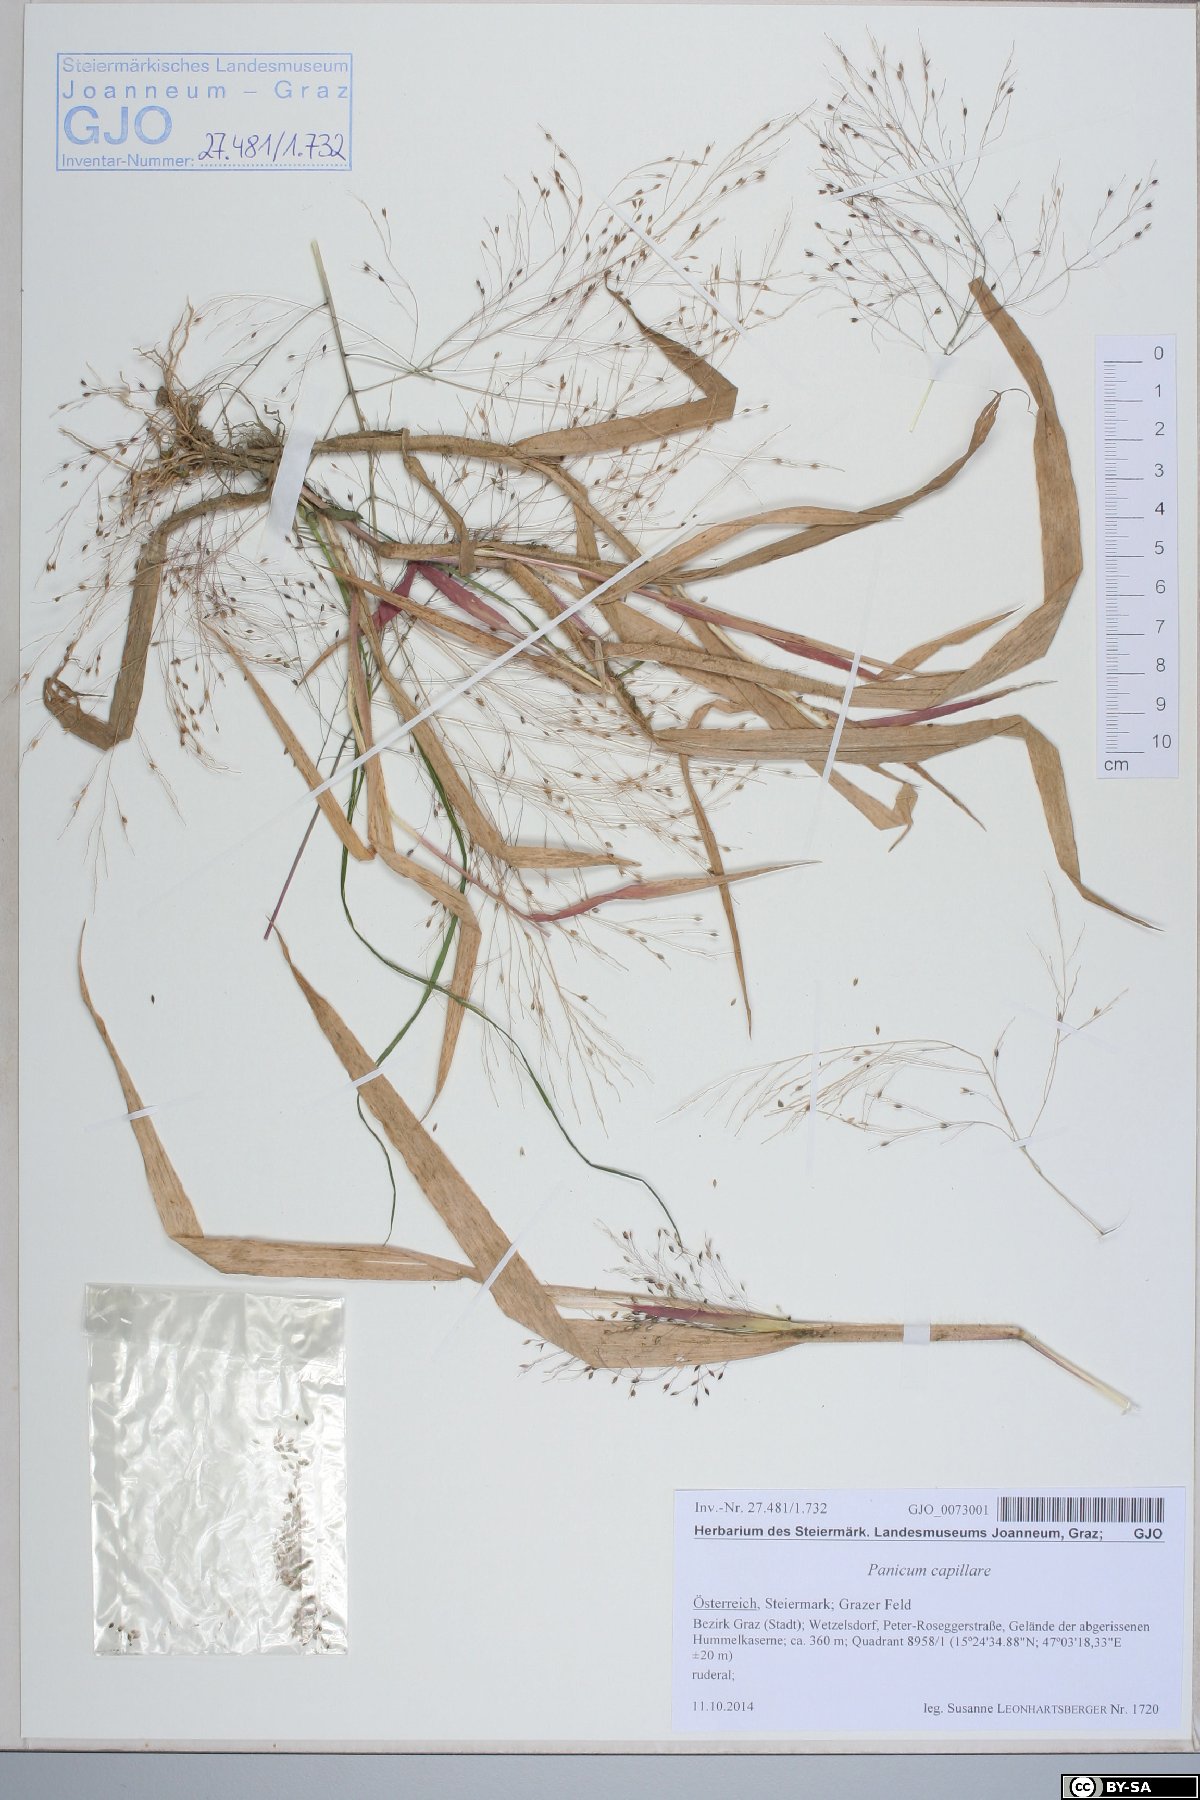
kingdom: Plantae
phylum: Tracheophyta
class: Liliopsida
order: Poales
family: Poaceae
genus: Panicum
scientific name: Panicum capillare
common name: Witch-grass
